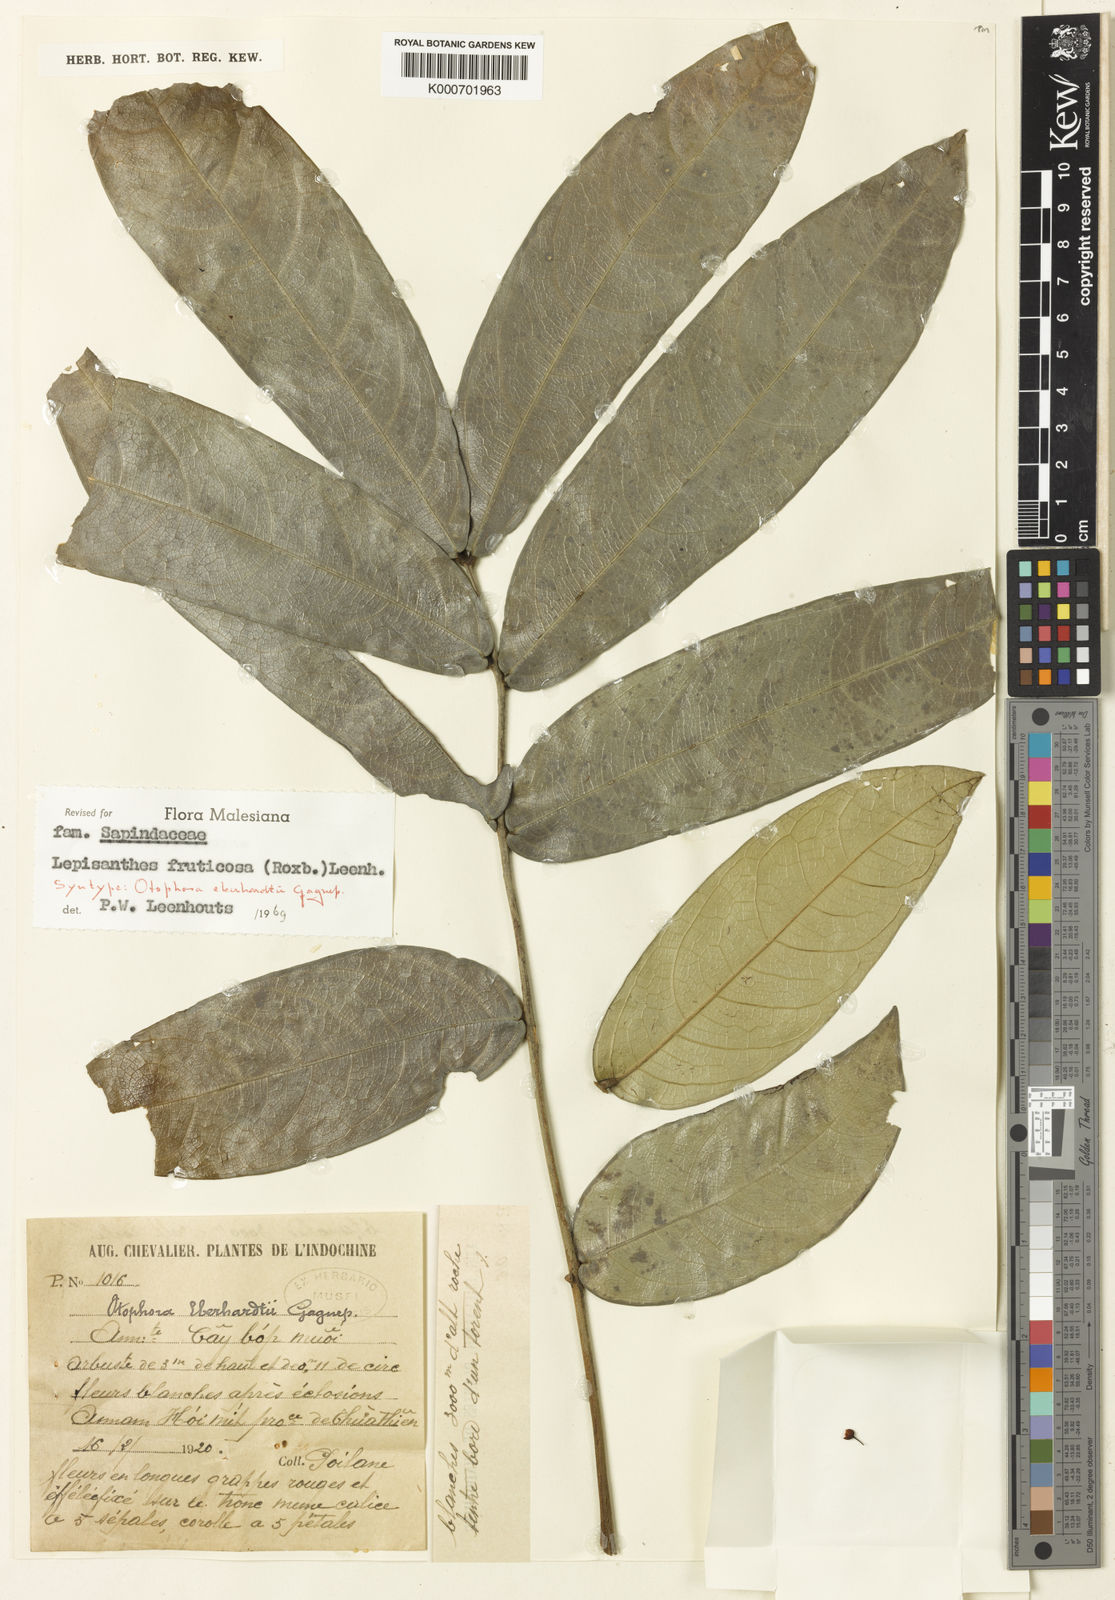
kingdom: Plantae
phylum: Tracheophyta
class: Magnoliopsida
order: Sapindales
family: Sapindaceae
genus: Lepisanthes
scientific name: Lepisanthes fruticosa
